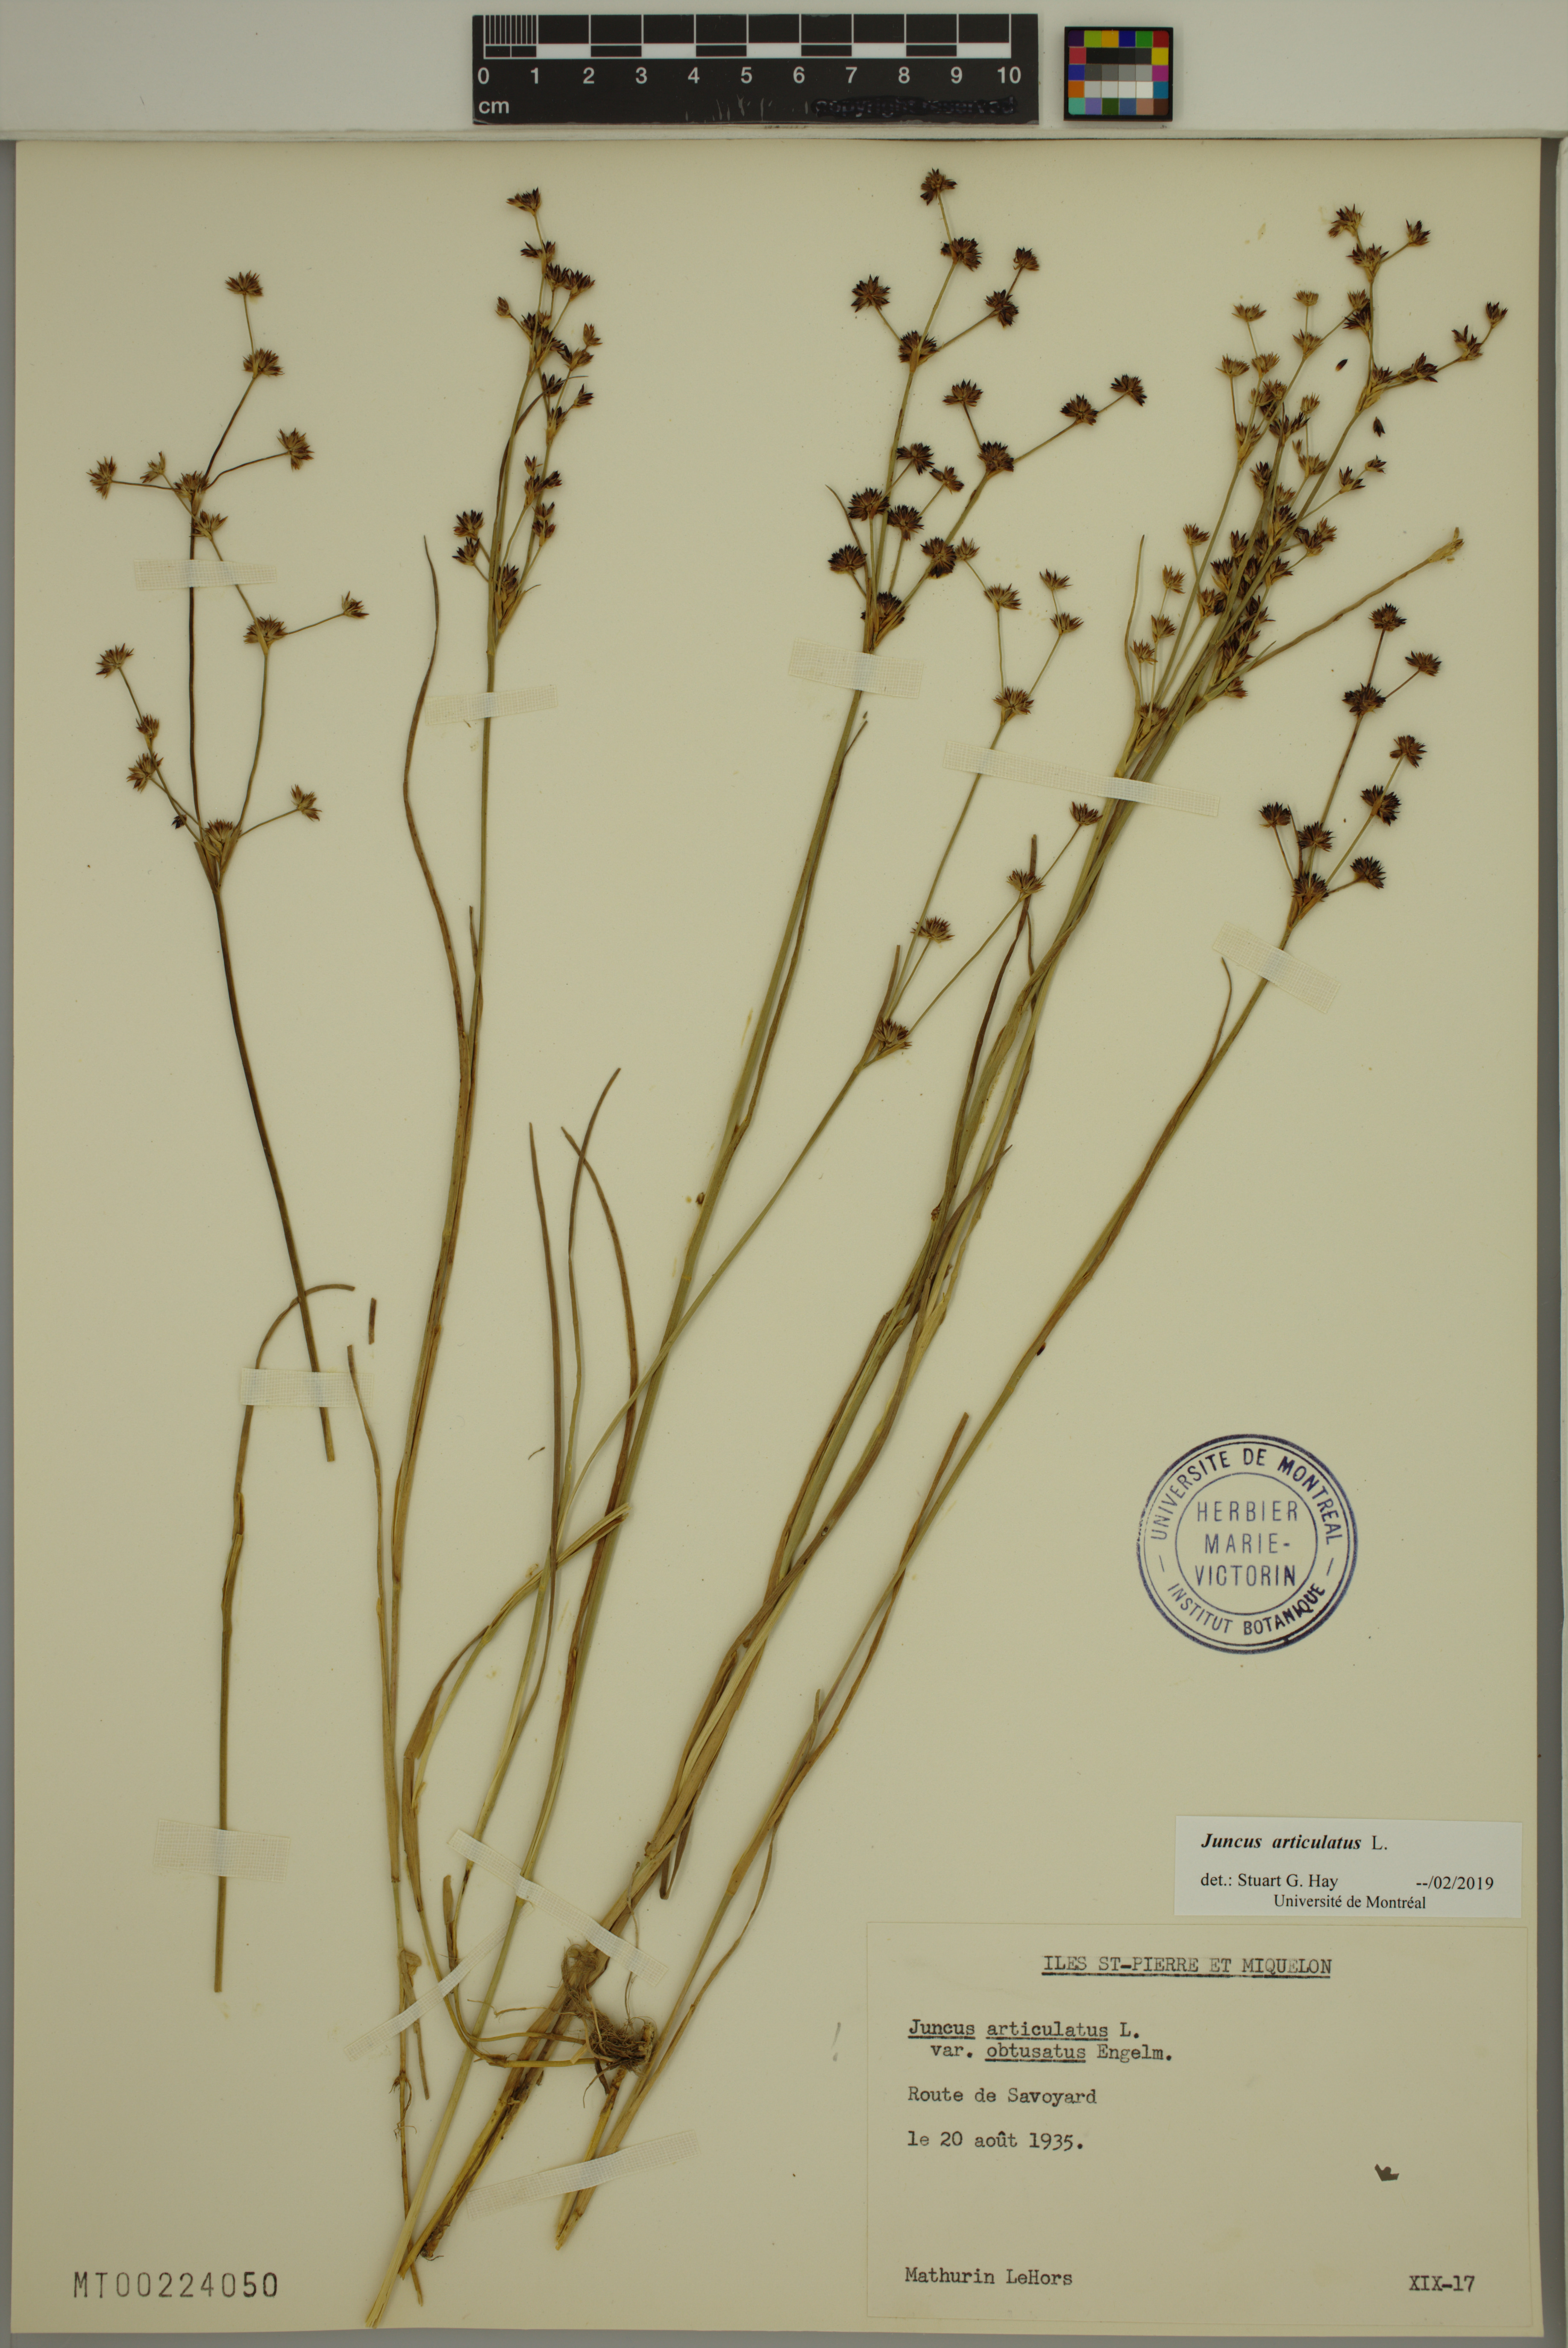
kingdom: Plantae
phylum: Tracheophyta
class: Liliopsida
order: Poales
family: Juncaceae
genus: Juncus
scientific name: Juncus articulatus
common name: Jointed rush
